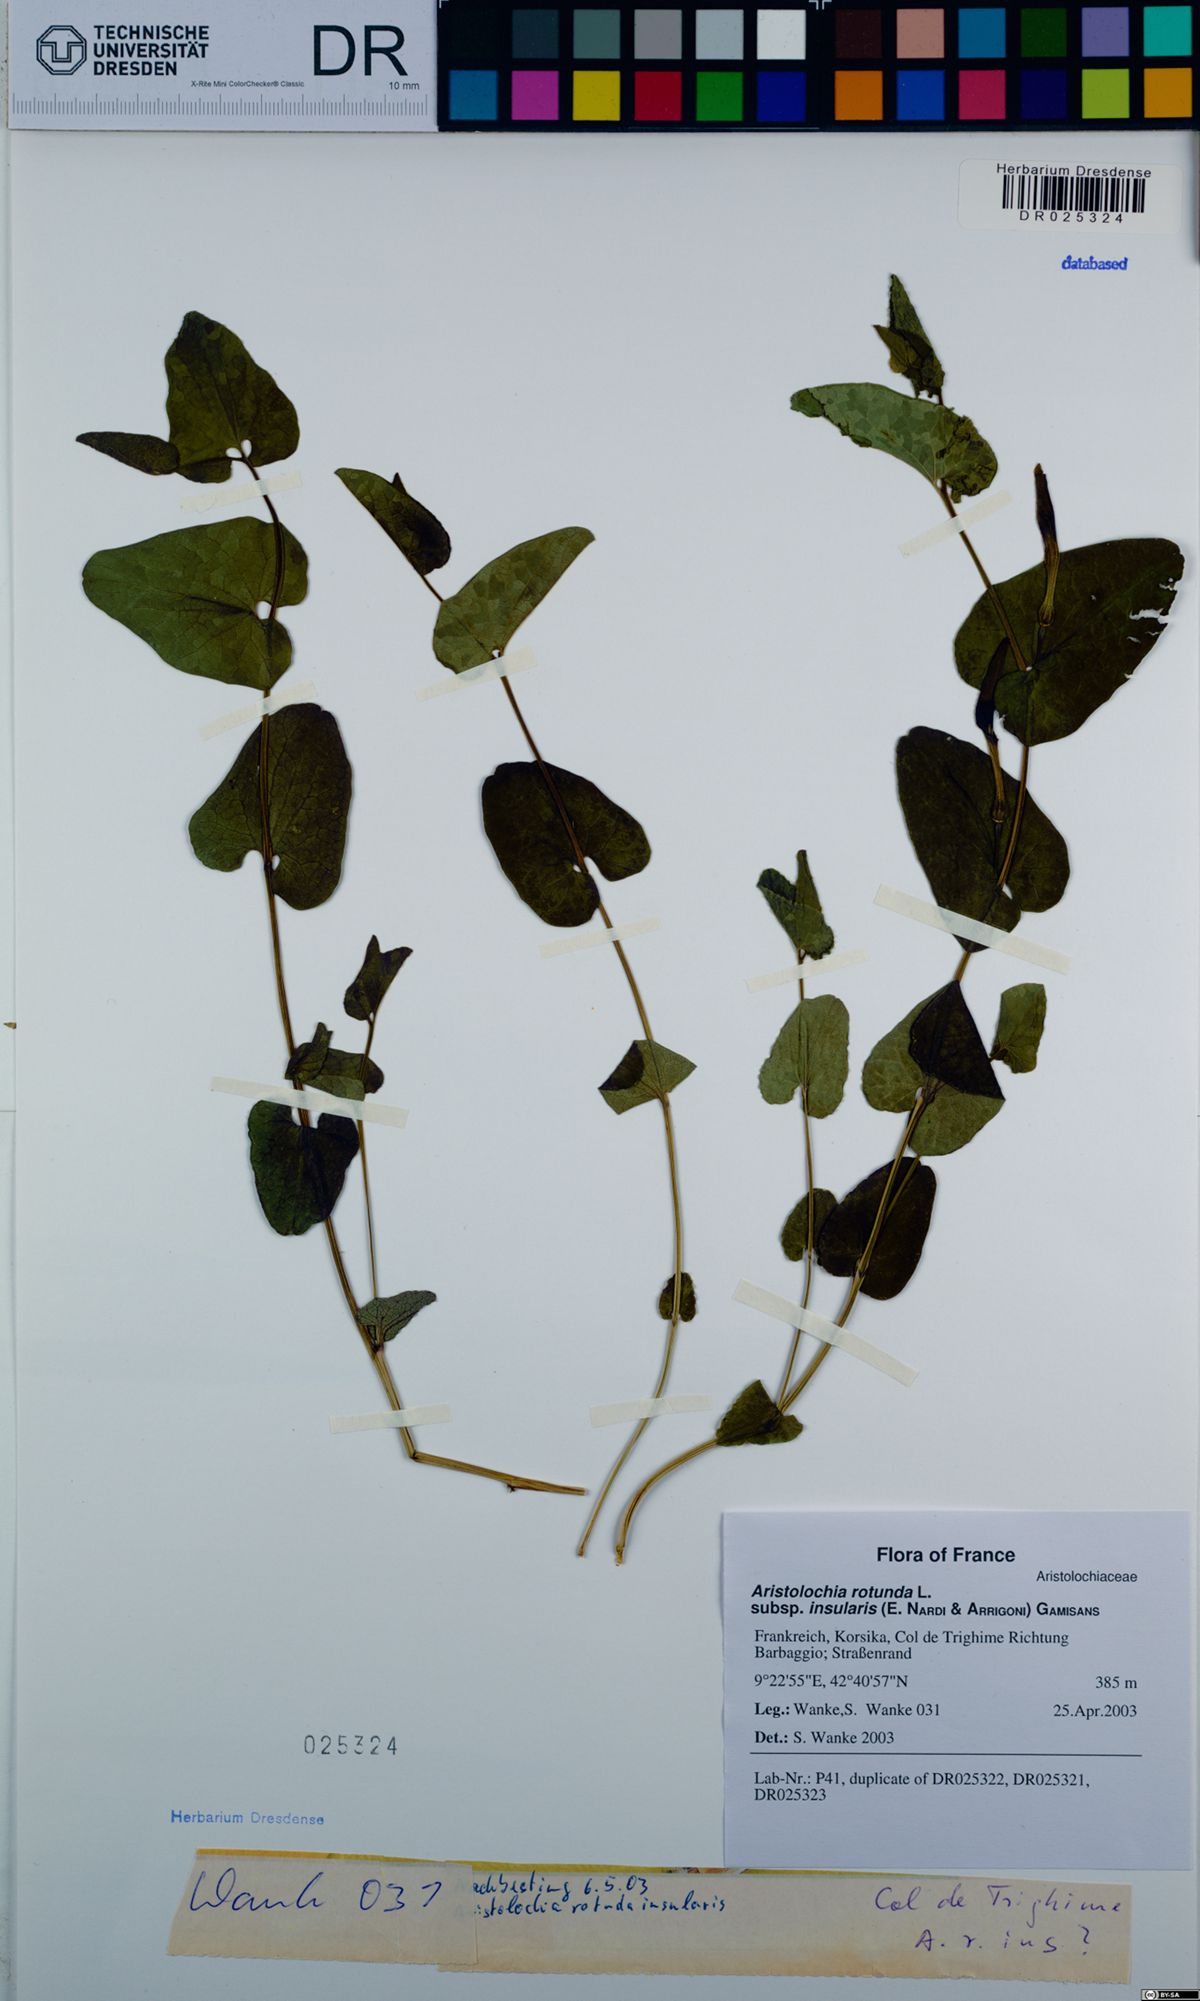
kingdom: Plantae
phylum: Tracheophyta
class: Magnoliopsida
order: Piperales
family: Aristolochiaceae
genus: Aristolochia
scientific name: Aristolochia rotunda
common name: Smearwort
